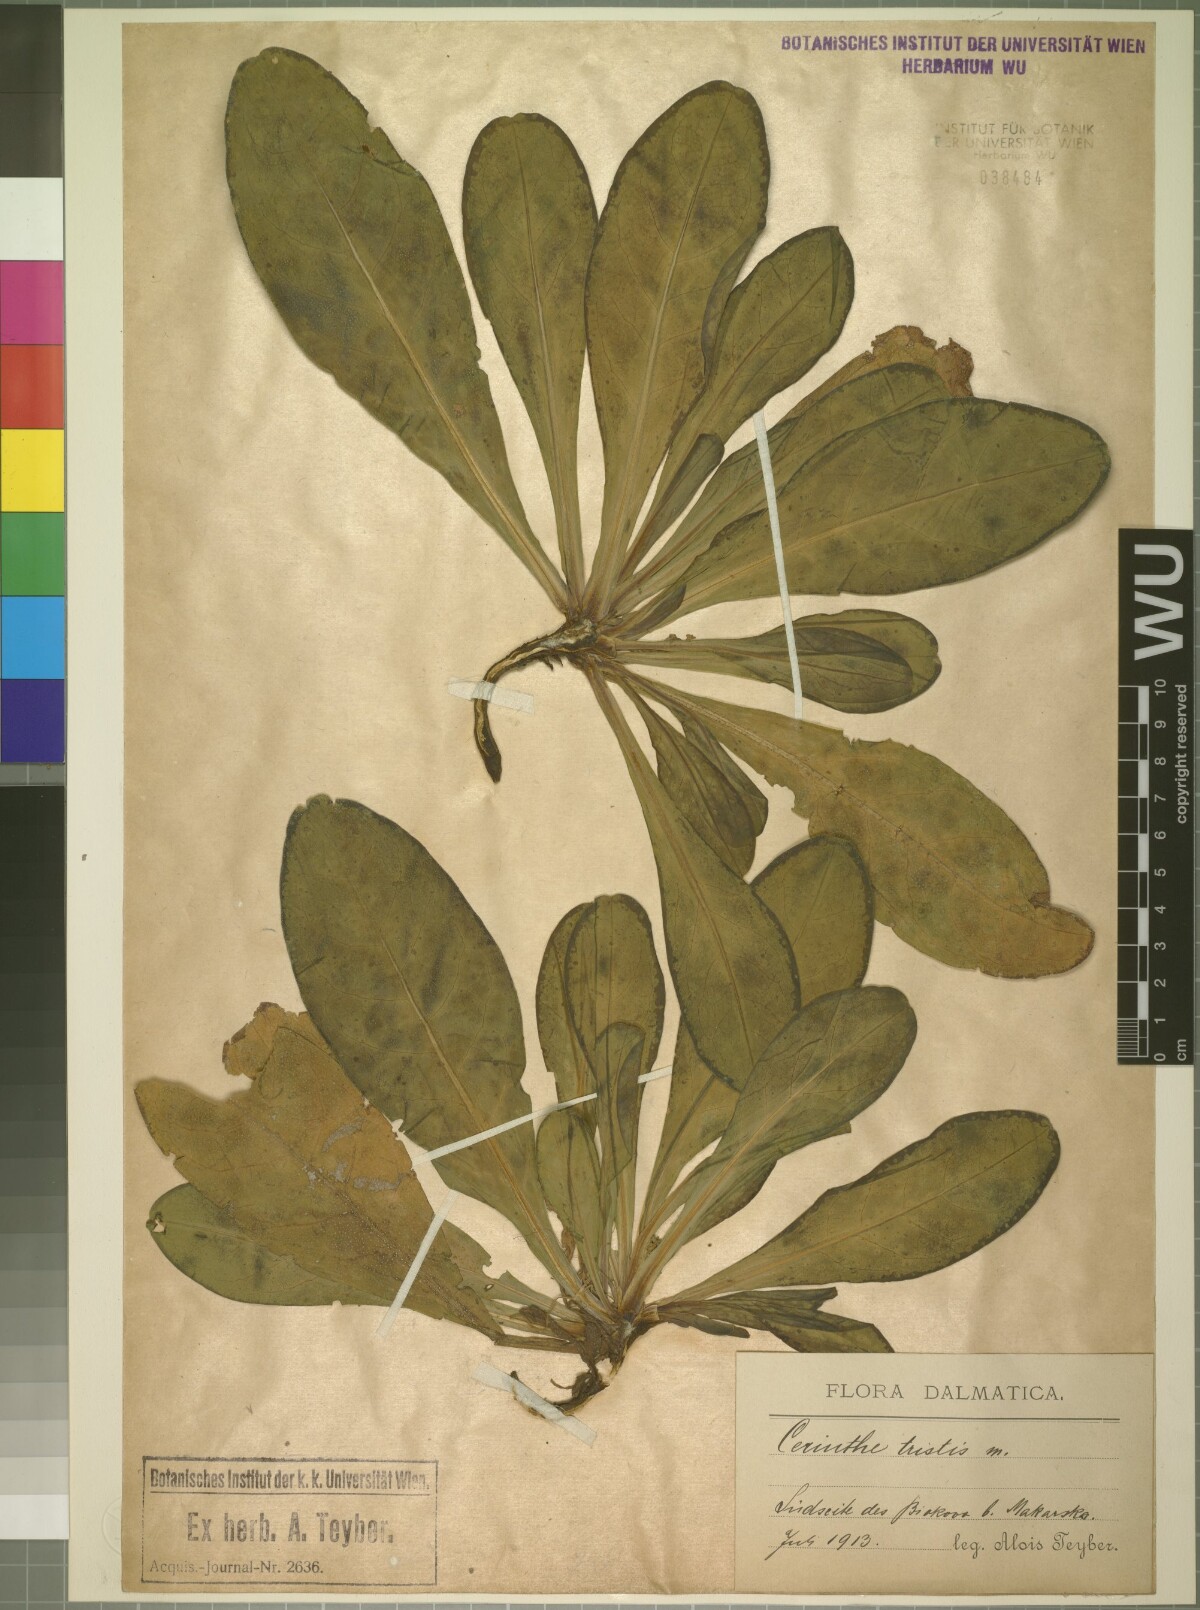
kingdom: Plantae
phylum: Tracheophyta
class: Magnoliopsida
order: Boraginales
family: Boraginaceae
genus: Cerinthe
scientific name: Cerinthe minor
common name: Lesser honeywort
